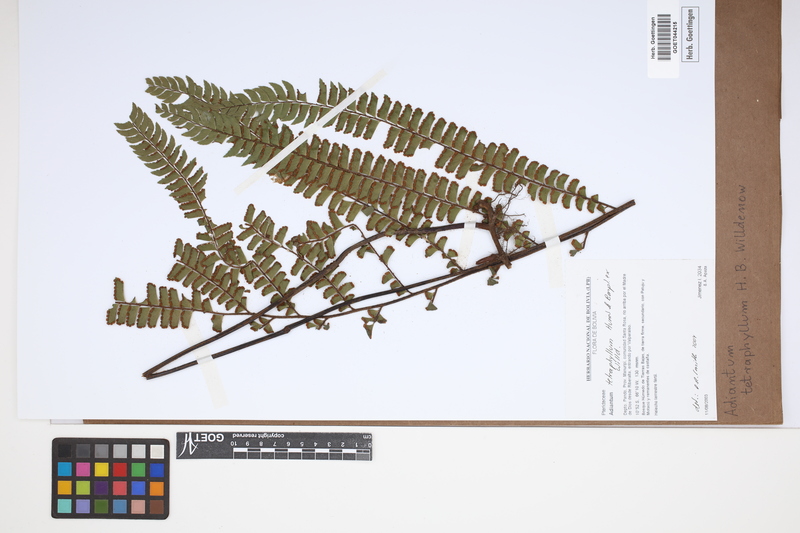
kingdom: Plantae
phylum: Tracheophyta
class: Polypodiopsida
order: Polypodiales
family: Pteridaceae
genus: Adiantum
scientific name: Adiantum tetraphyllum
